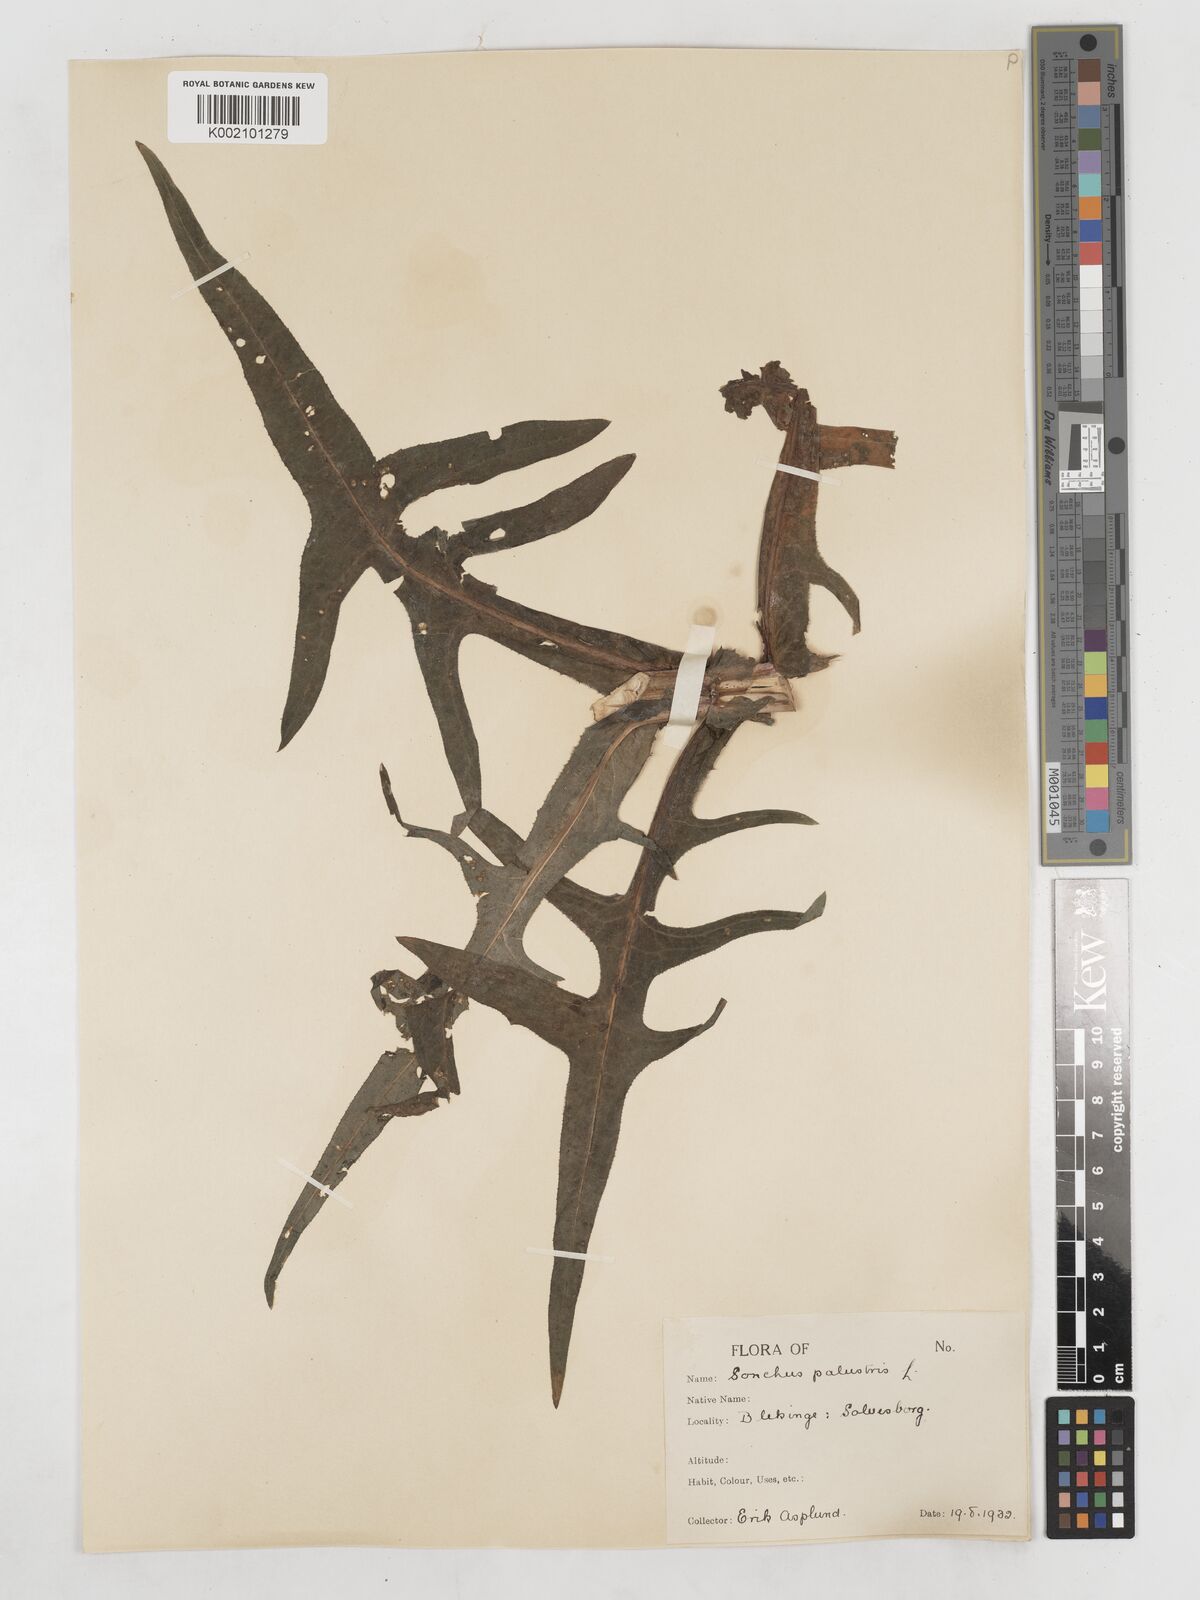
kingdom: Plantae
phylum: Tracheophyta
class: Magnoliopsida
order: Asterales
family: Asteraceae
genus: Sonchus
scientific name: Sonchus palustris
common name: Marsh sow-thistle
